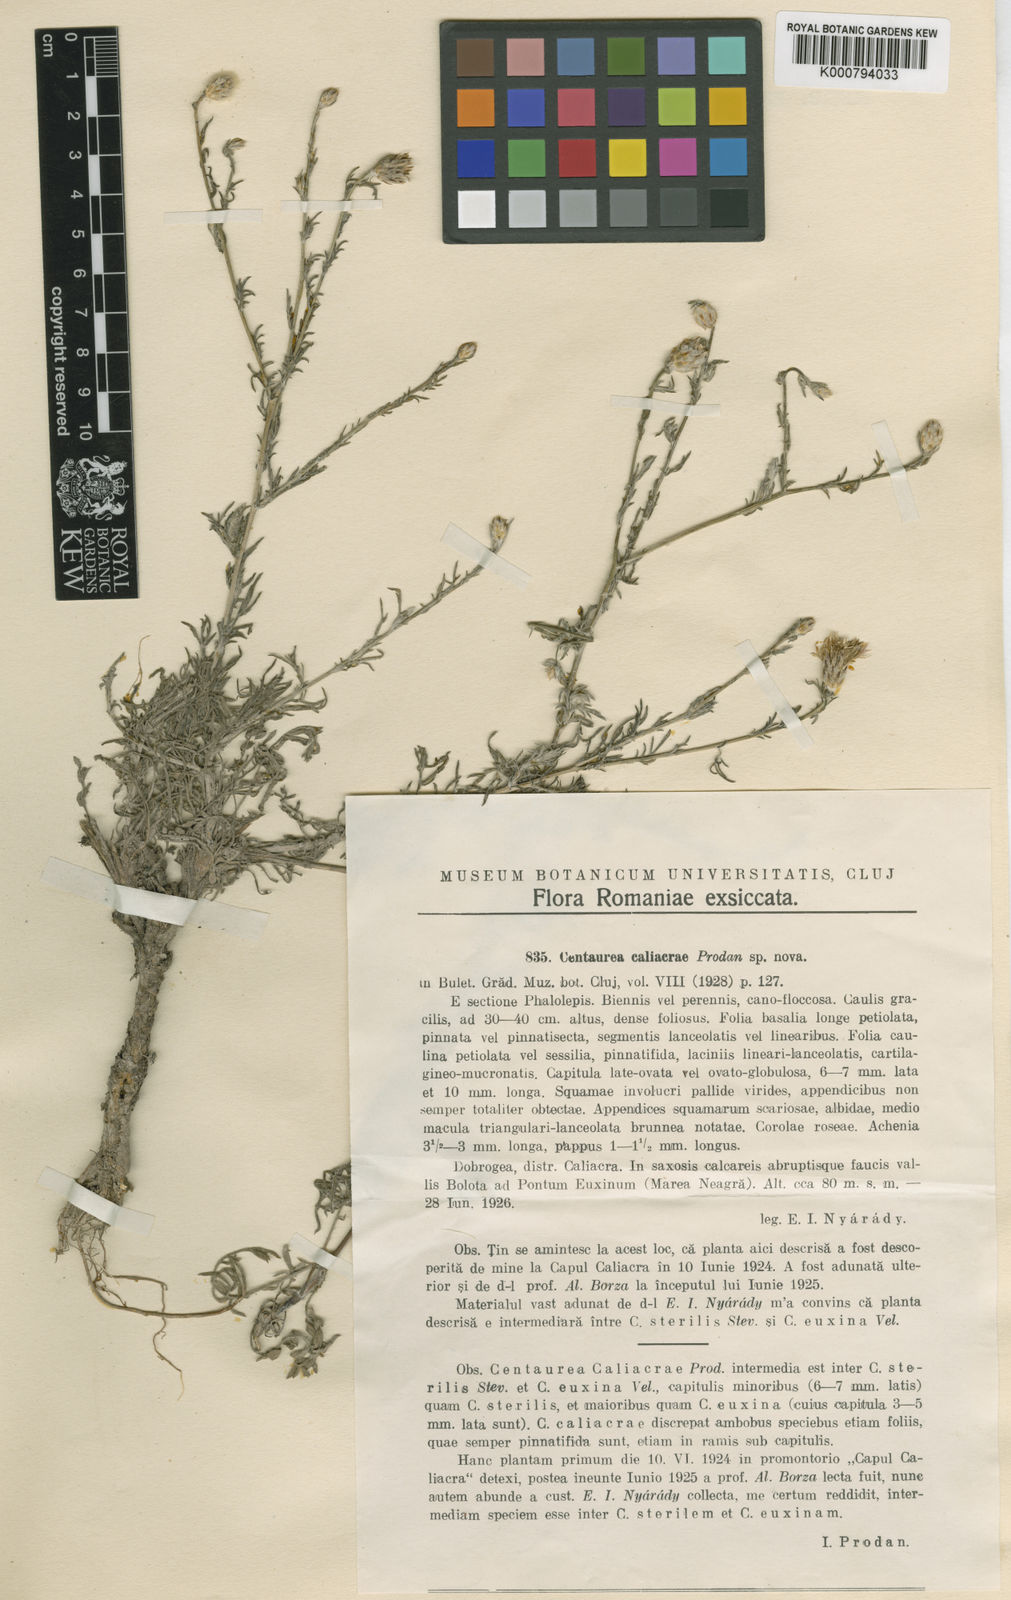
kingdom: Plantae
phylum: Tracheophyta
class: Magnoliopsida
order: Asterales
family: Asteraceae
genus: Centaurea
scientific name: Centaurea alba
